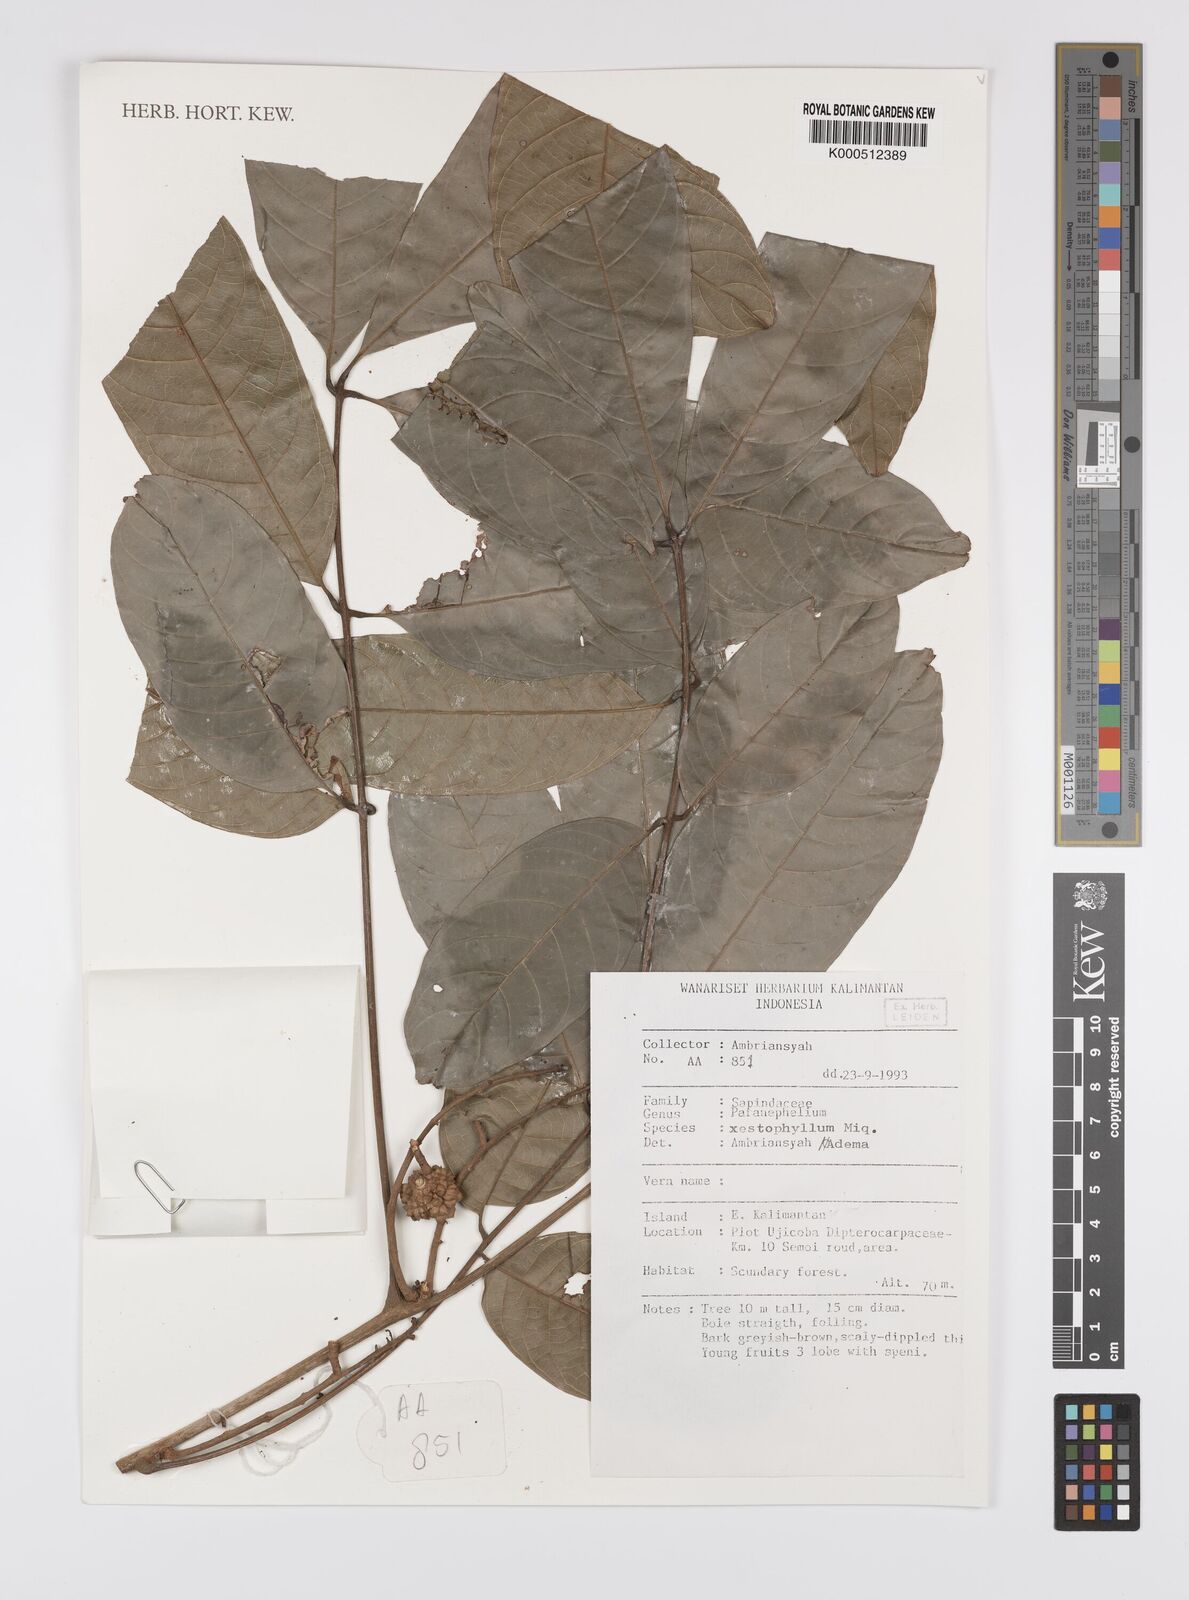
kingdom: Plantae
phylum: Tracheophyta
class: Magnoliopsida
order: Sapindales
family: Sapindaceae
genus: Paranephelium
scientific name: Paranephelium xestophyllum
